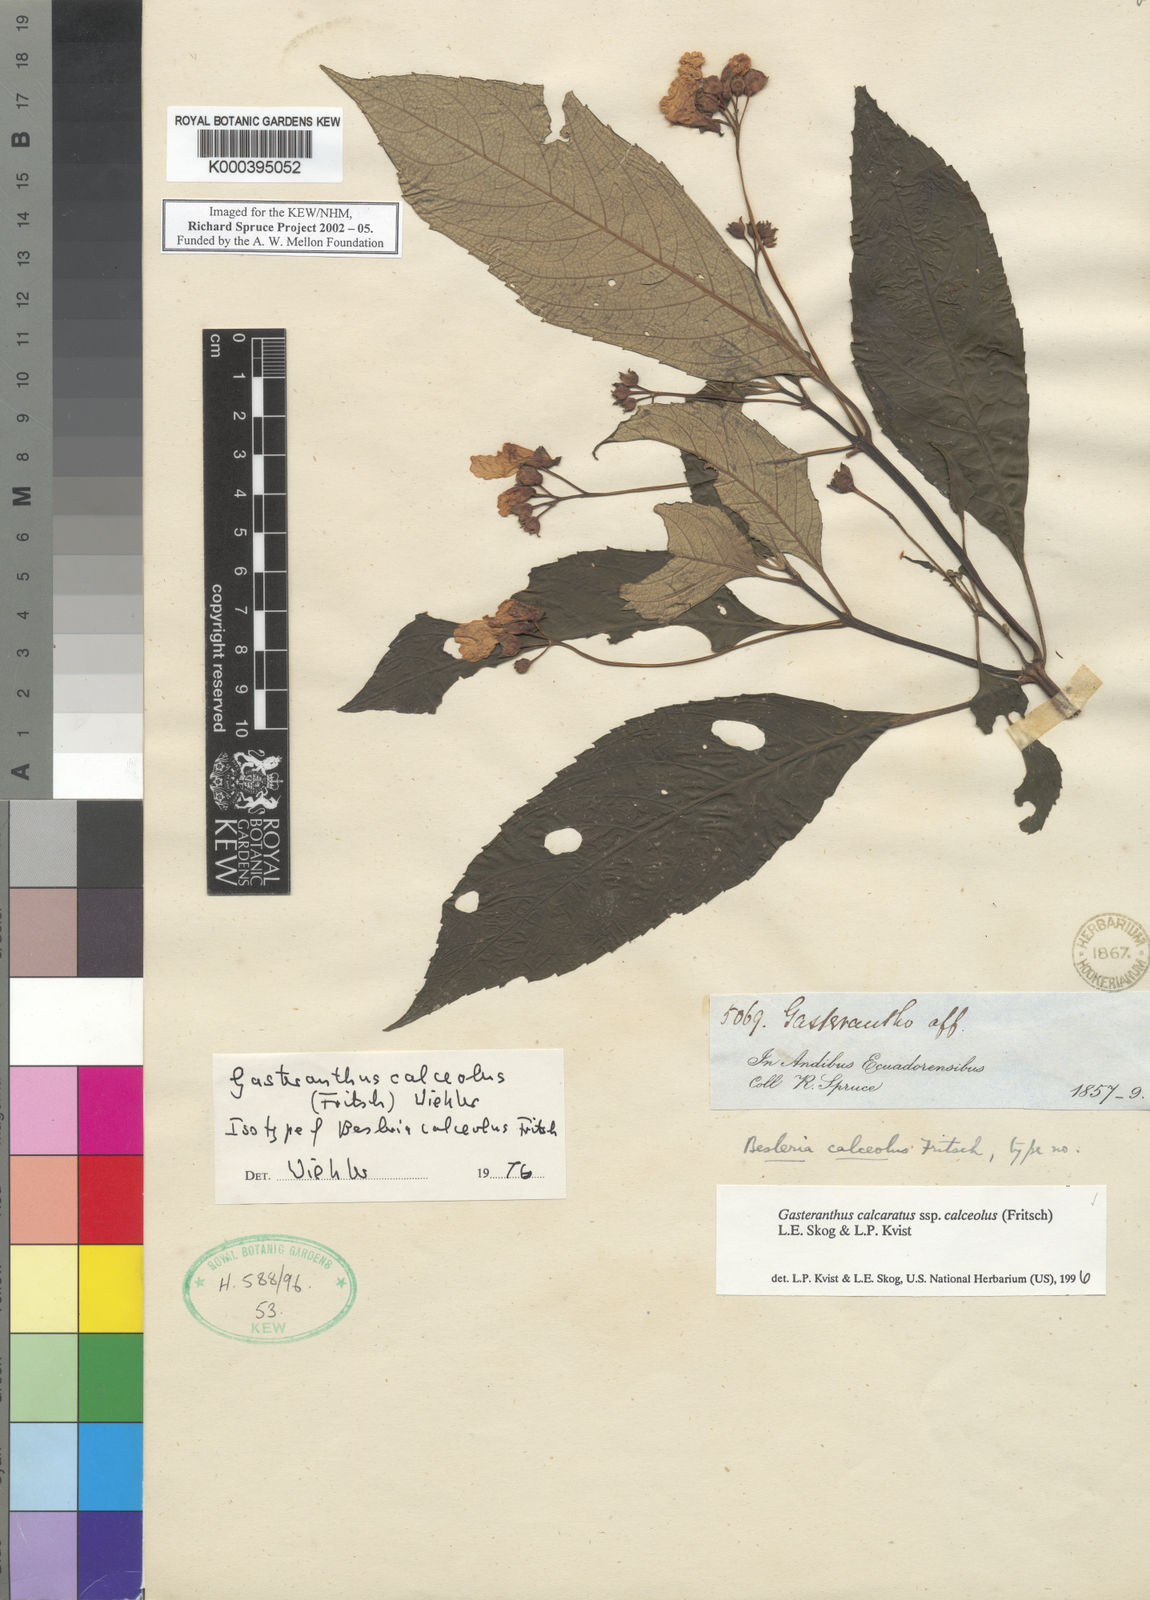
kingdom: Plantae
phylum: Tracheophyta
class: Magnoliopsida
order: Lamiales
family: Gesneriaceae
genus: Gasteranthus
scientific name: Gasteranthus
